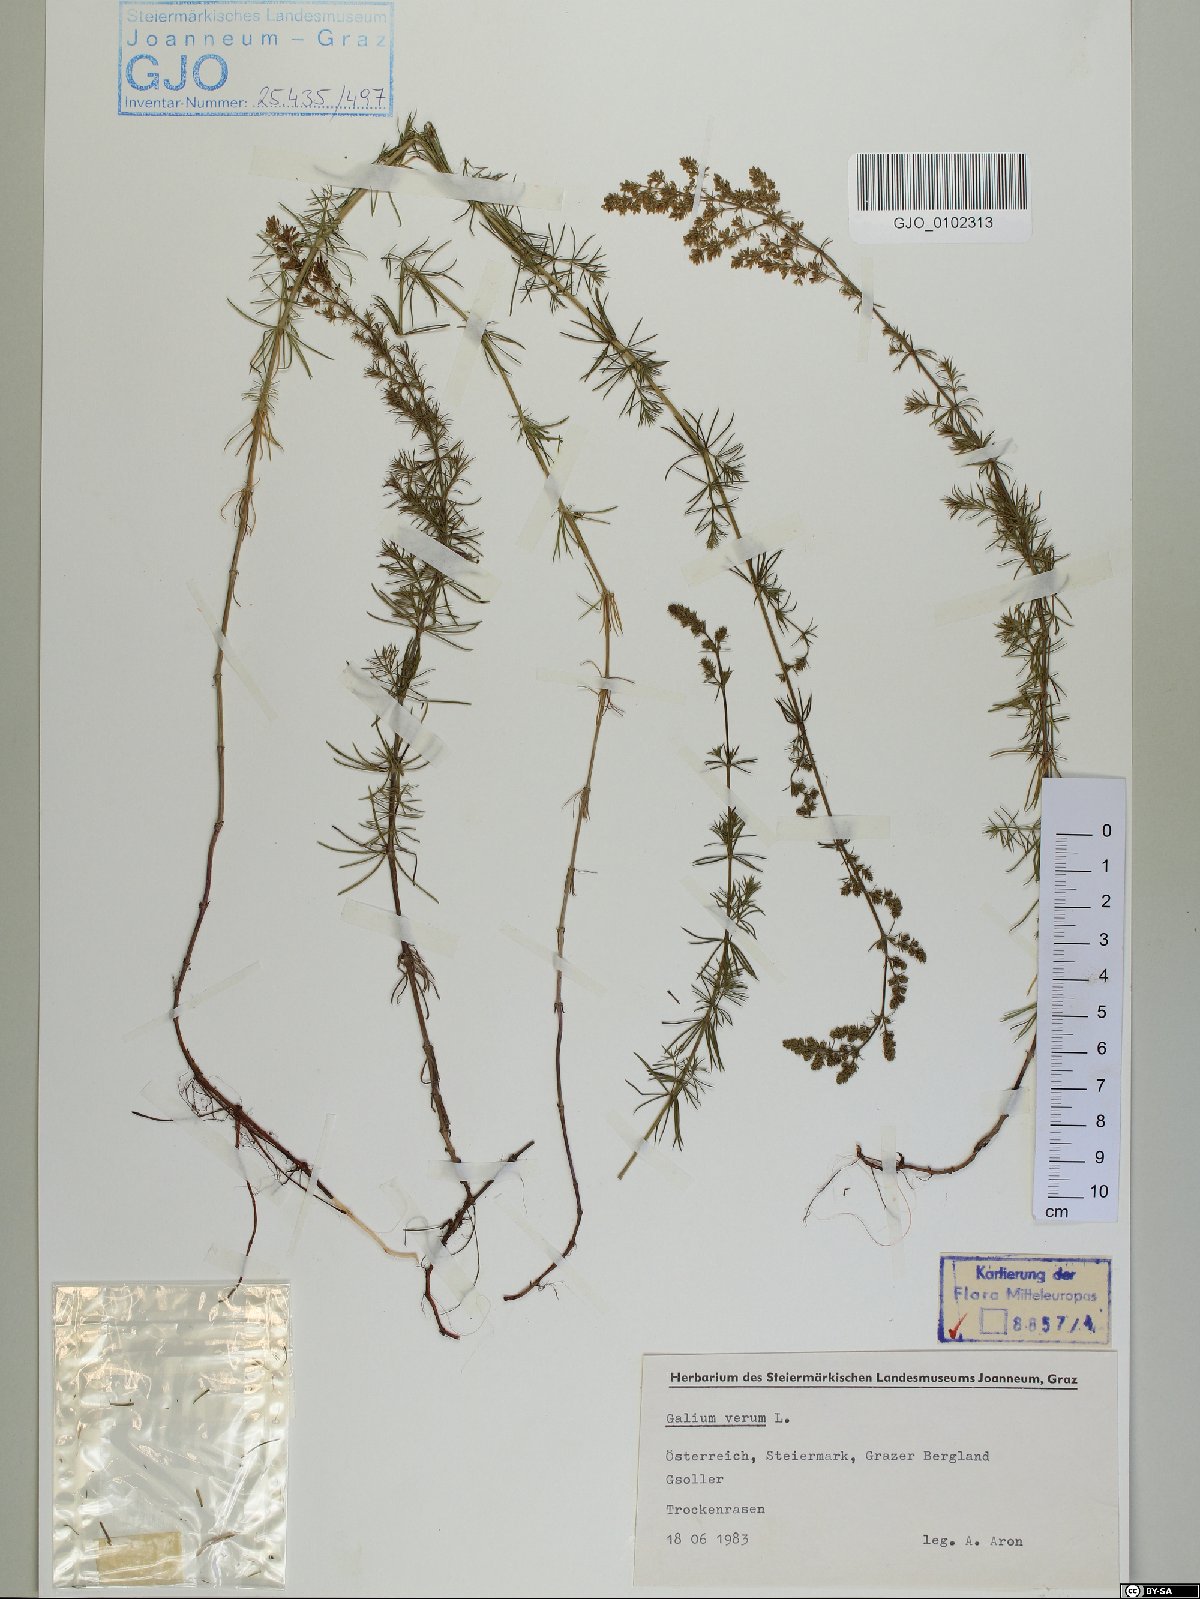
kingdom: Plantae
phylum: Tracheophyta
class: Magnoliopsida
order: Gentianales
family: Rubiaceae
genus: Galium
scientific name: Galium verum
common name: Lady's bedstraw
